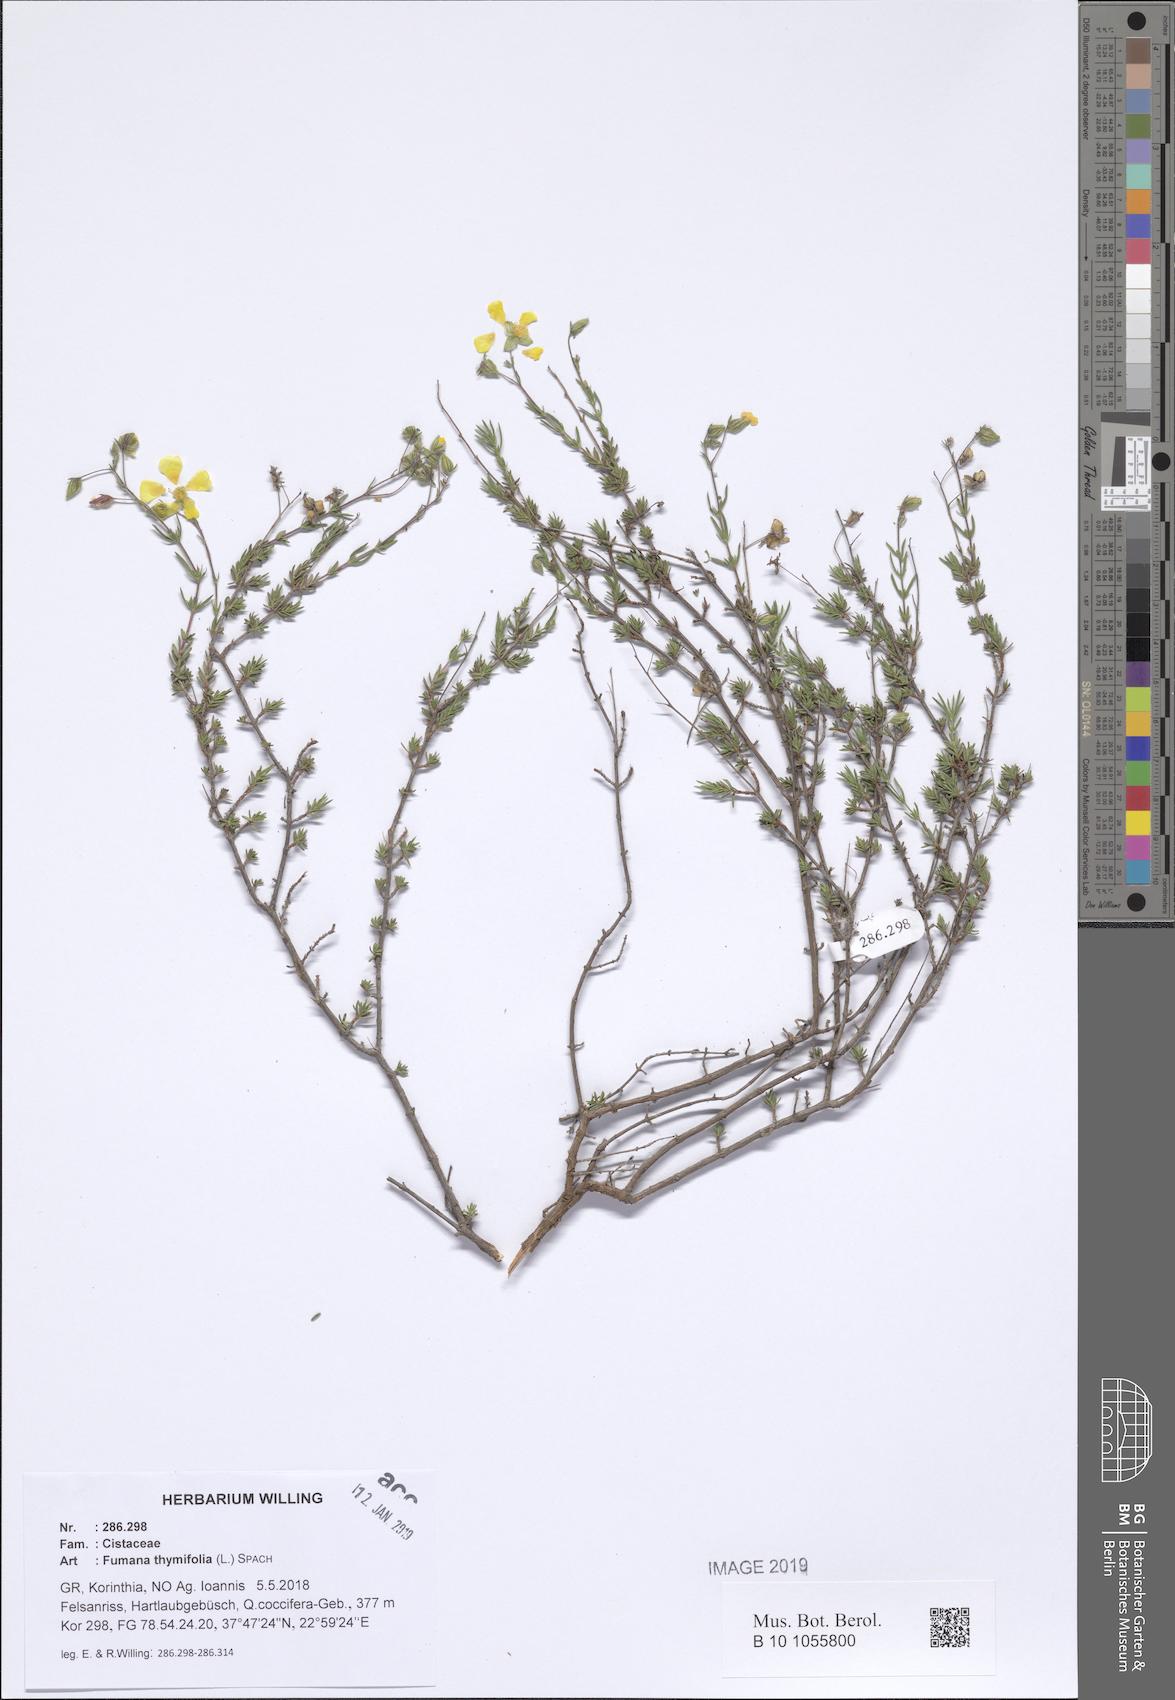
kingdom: Plantae
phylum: Tracheophyta
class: Magnoliopsida
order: Malvales
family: Cistaceae
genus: Fumana
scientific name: Fumana thymifolia
